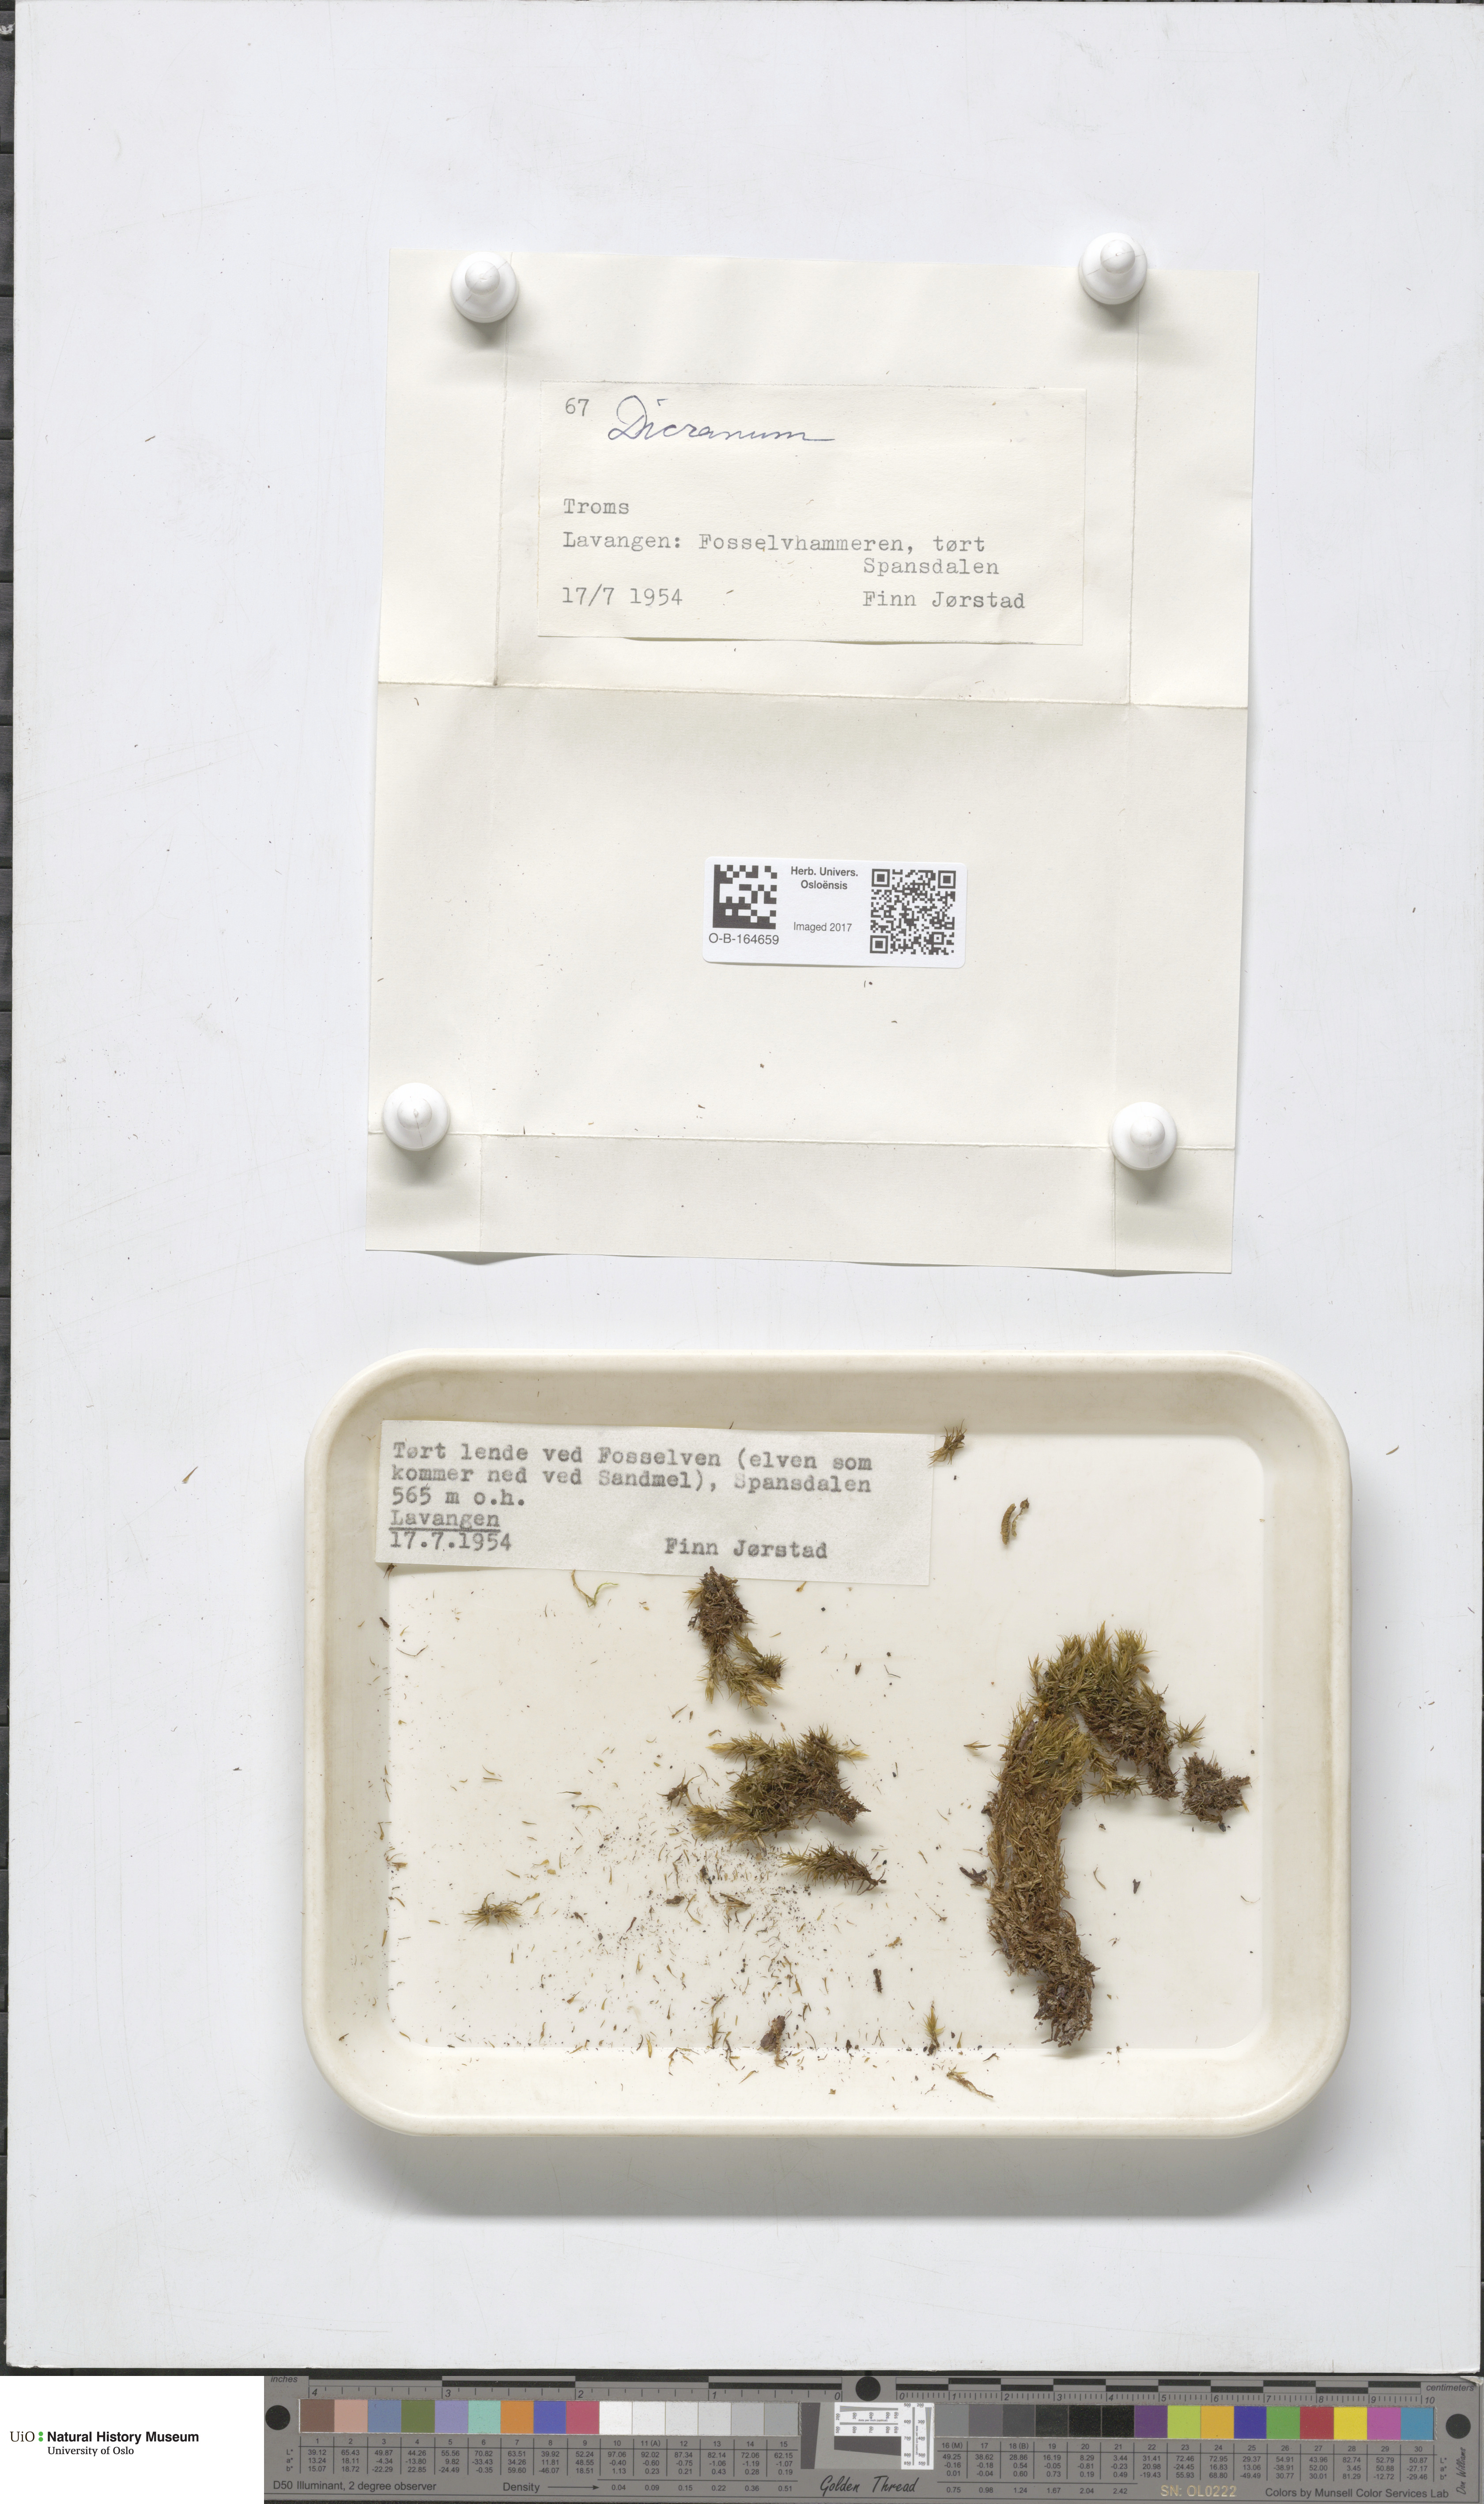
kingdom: Plantae
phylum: Bryophyta
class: Bryopsida
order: Dicranales
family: Dicranaceae
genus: Dicranum
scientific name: Dicranum
